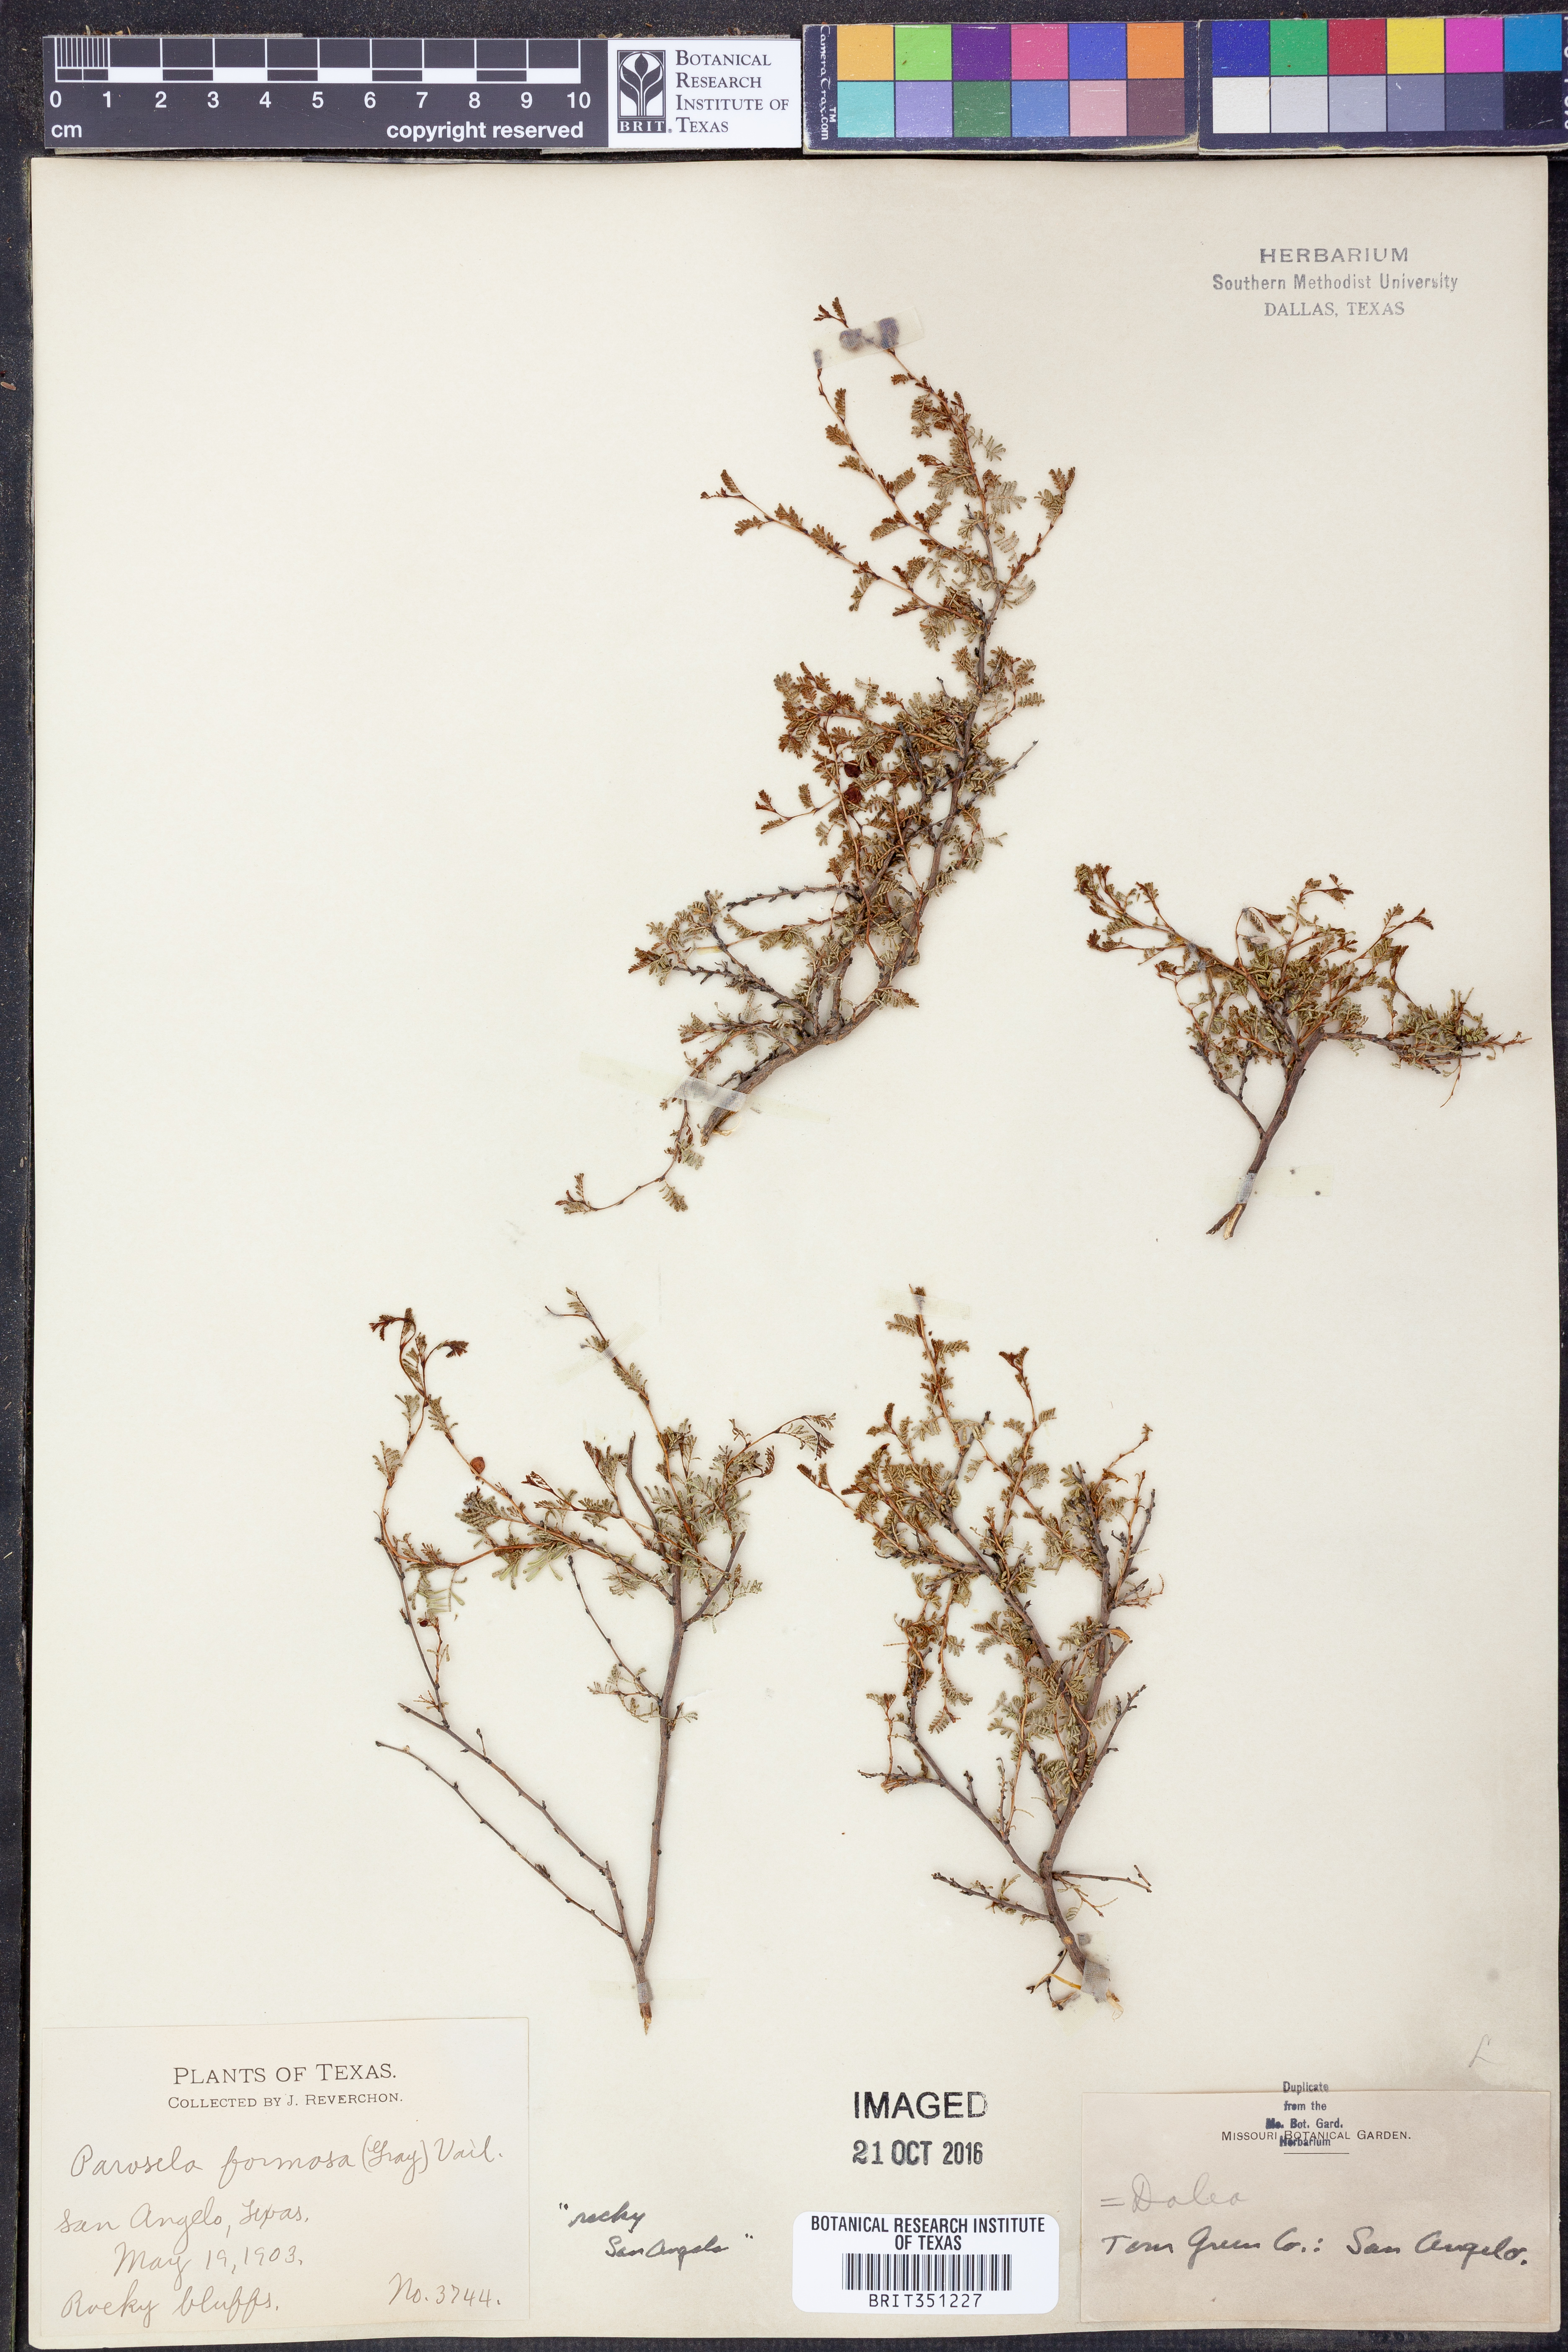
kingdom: Plantae
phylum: Tracheophyta
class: Magnoliopsida
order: Fabales
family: Fabaceae
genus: Dalea
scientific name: Dalea formosa
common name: Feather-plume dalea
